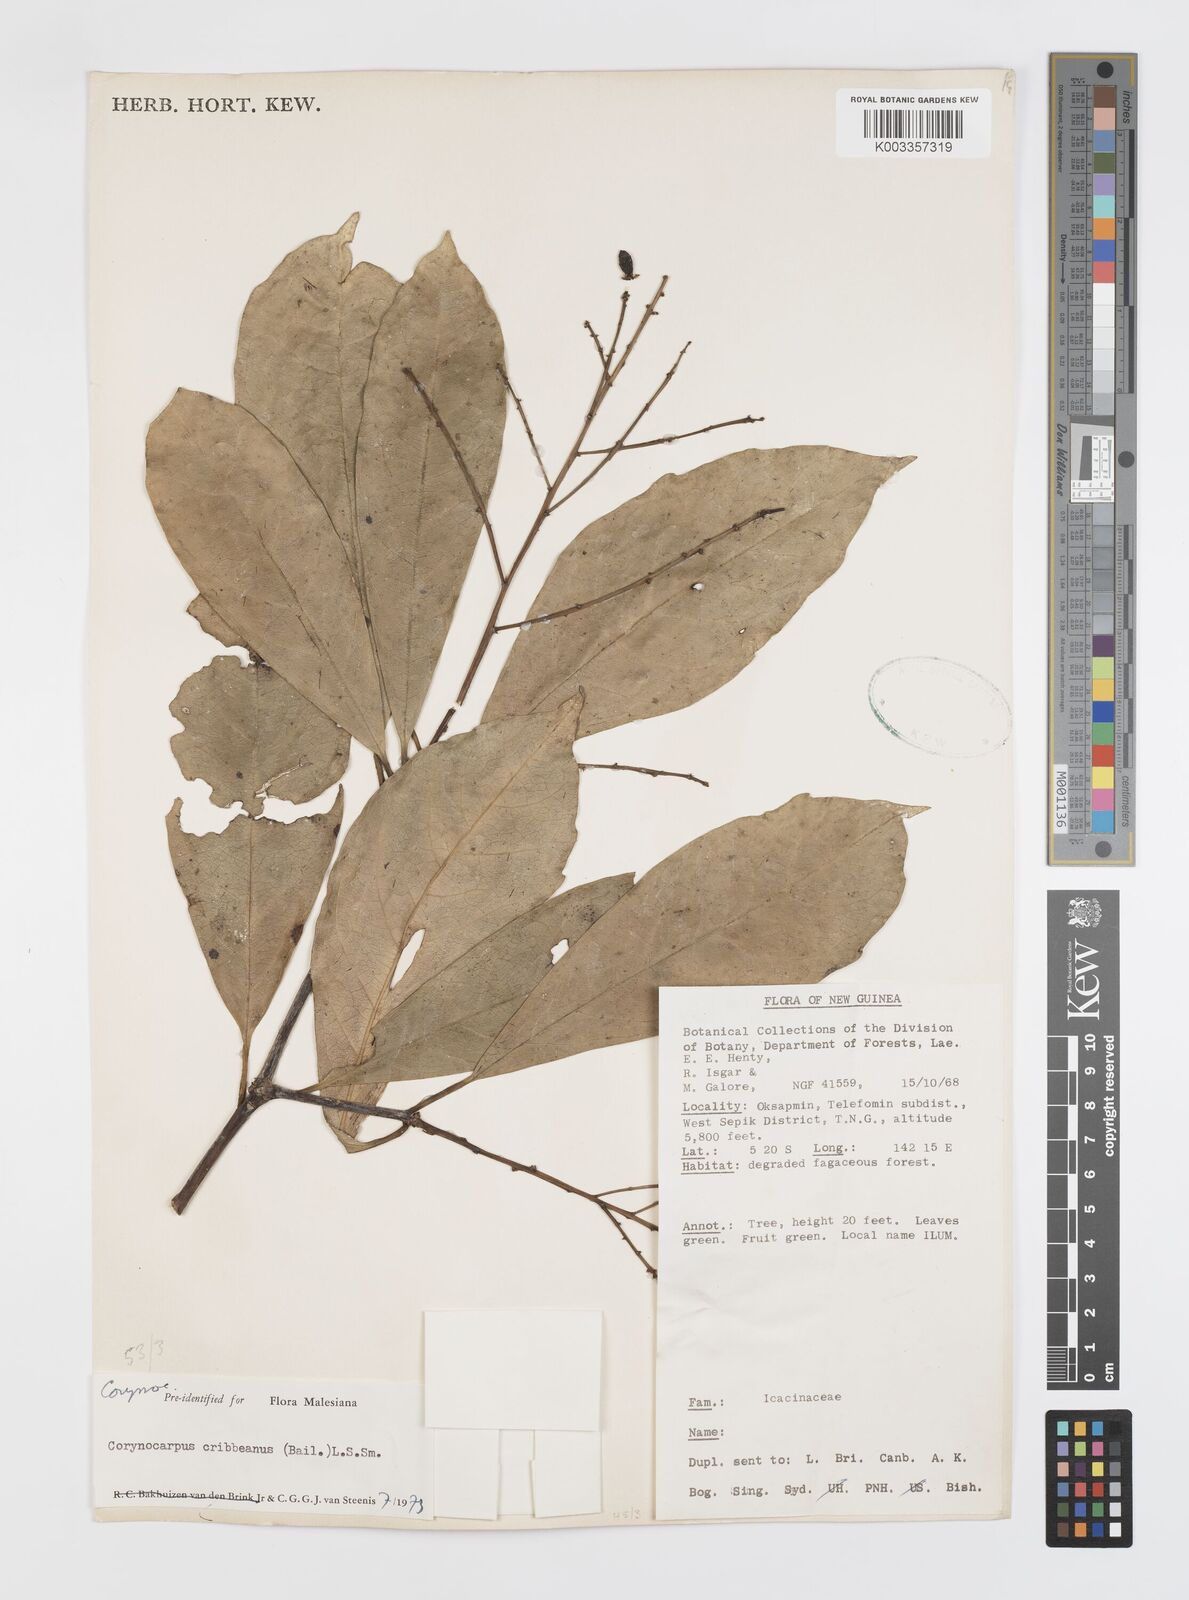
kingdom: Plantae
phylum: Tracheophyta
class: Magnoliopsida
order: Cucurbitales
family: Corynocarpaceae
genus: Corynocarpus
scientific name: Corynocarpus cribbianus
